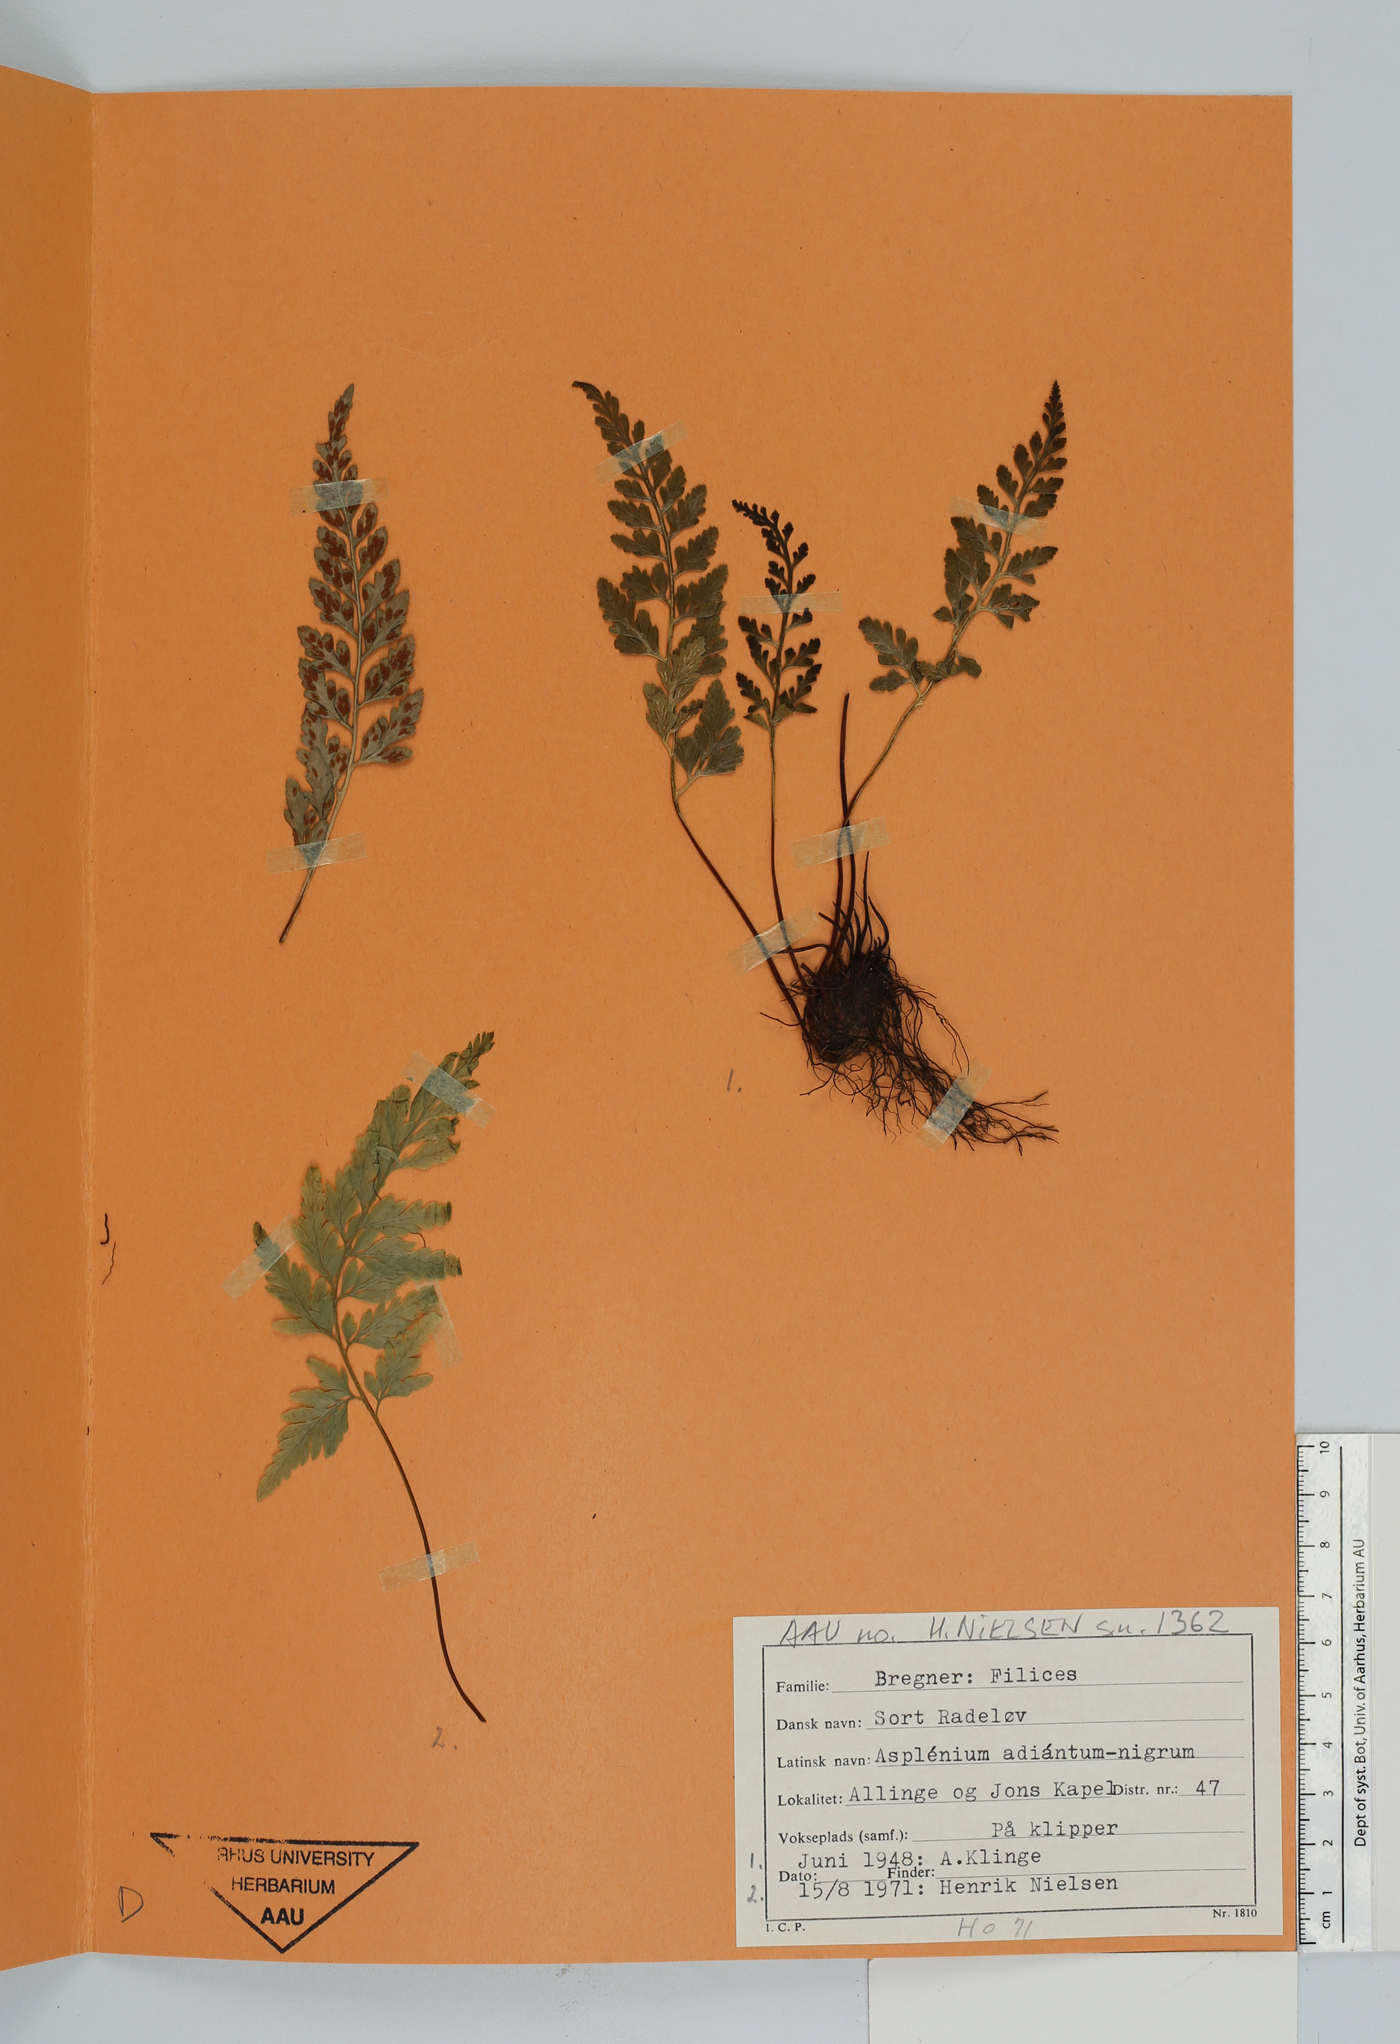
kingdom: Plantae
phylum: Tracheophyta
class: Polypodiopsida
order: Polypodiales
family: Aspleniaceae
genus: Asplenium
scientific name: Asplenium adiantum-nigrum
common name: Black spleenwort
